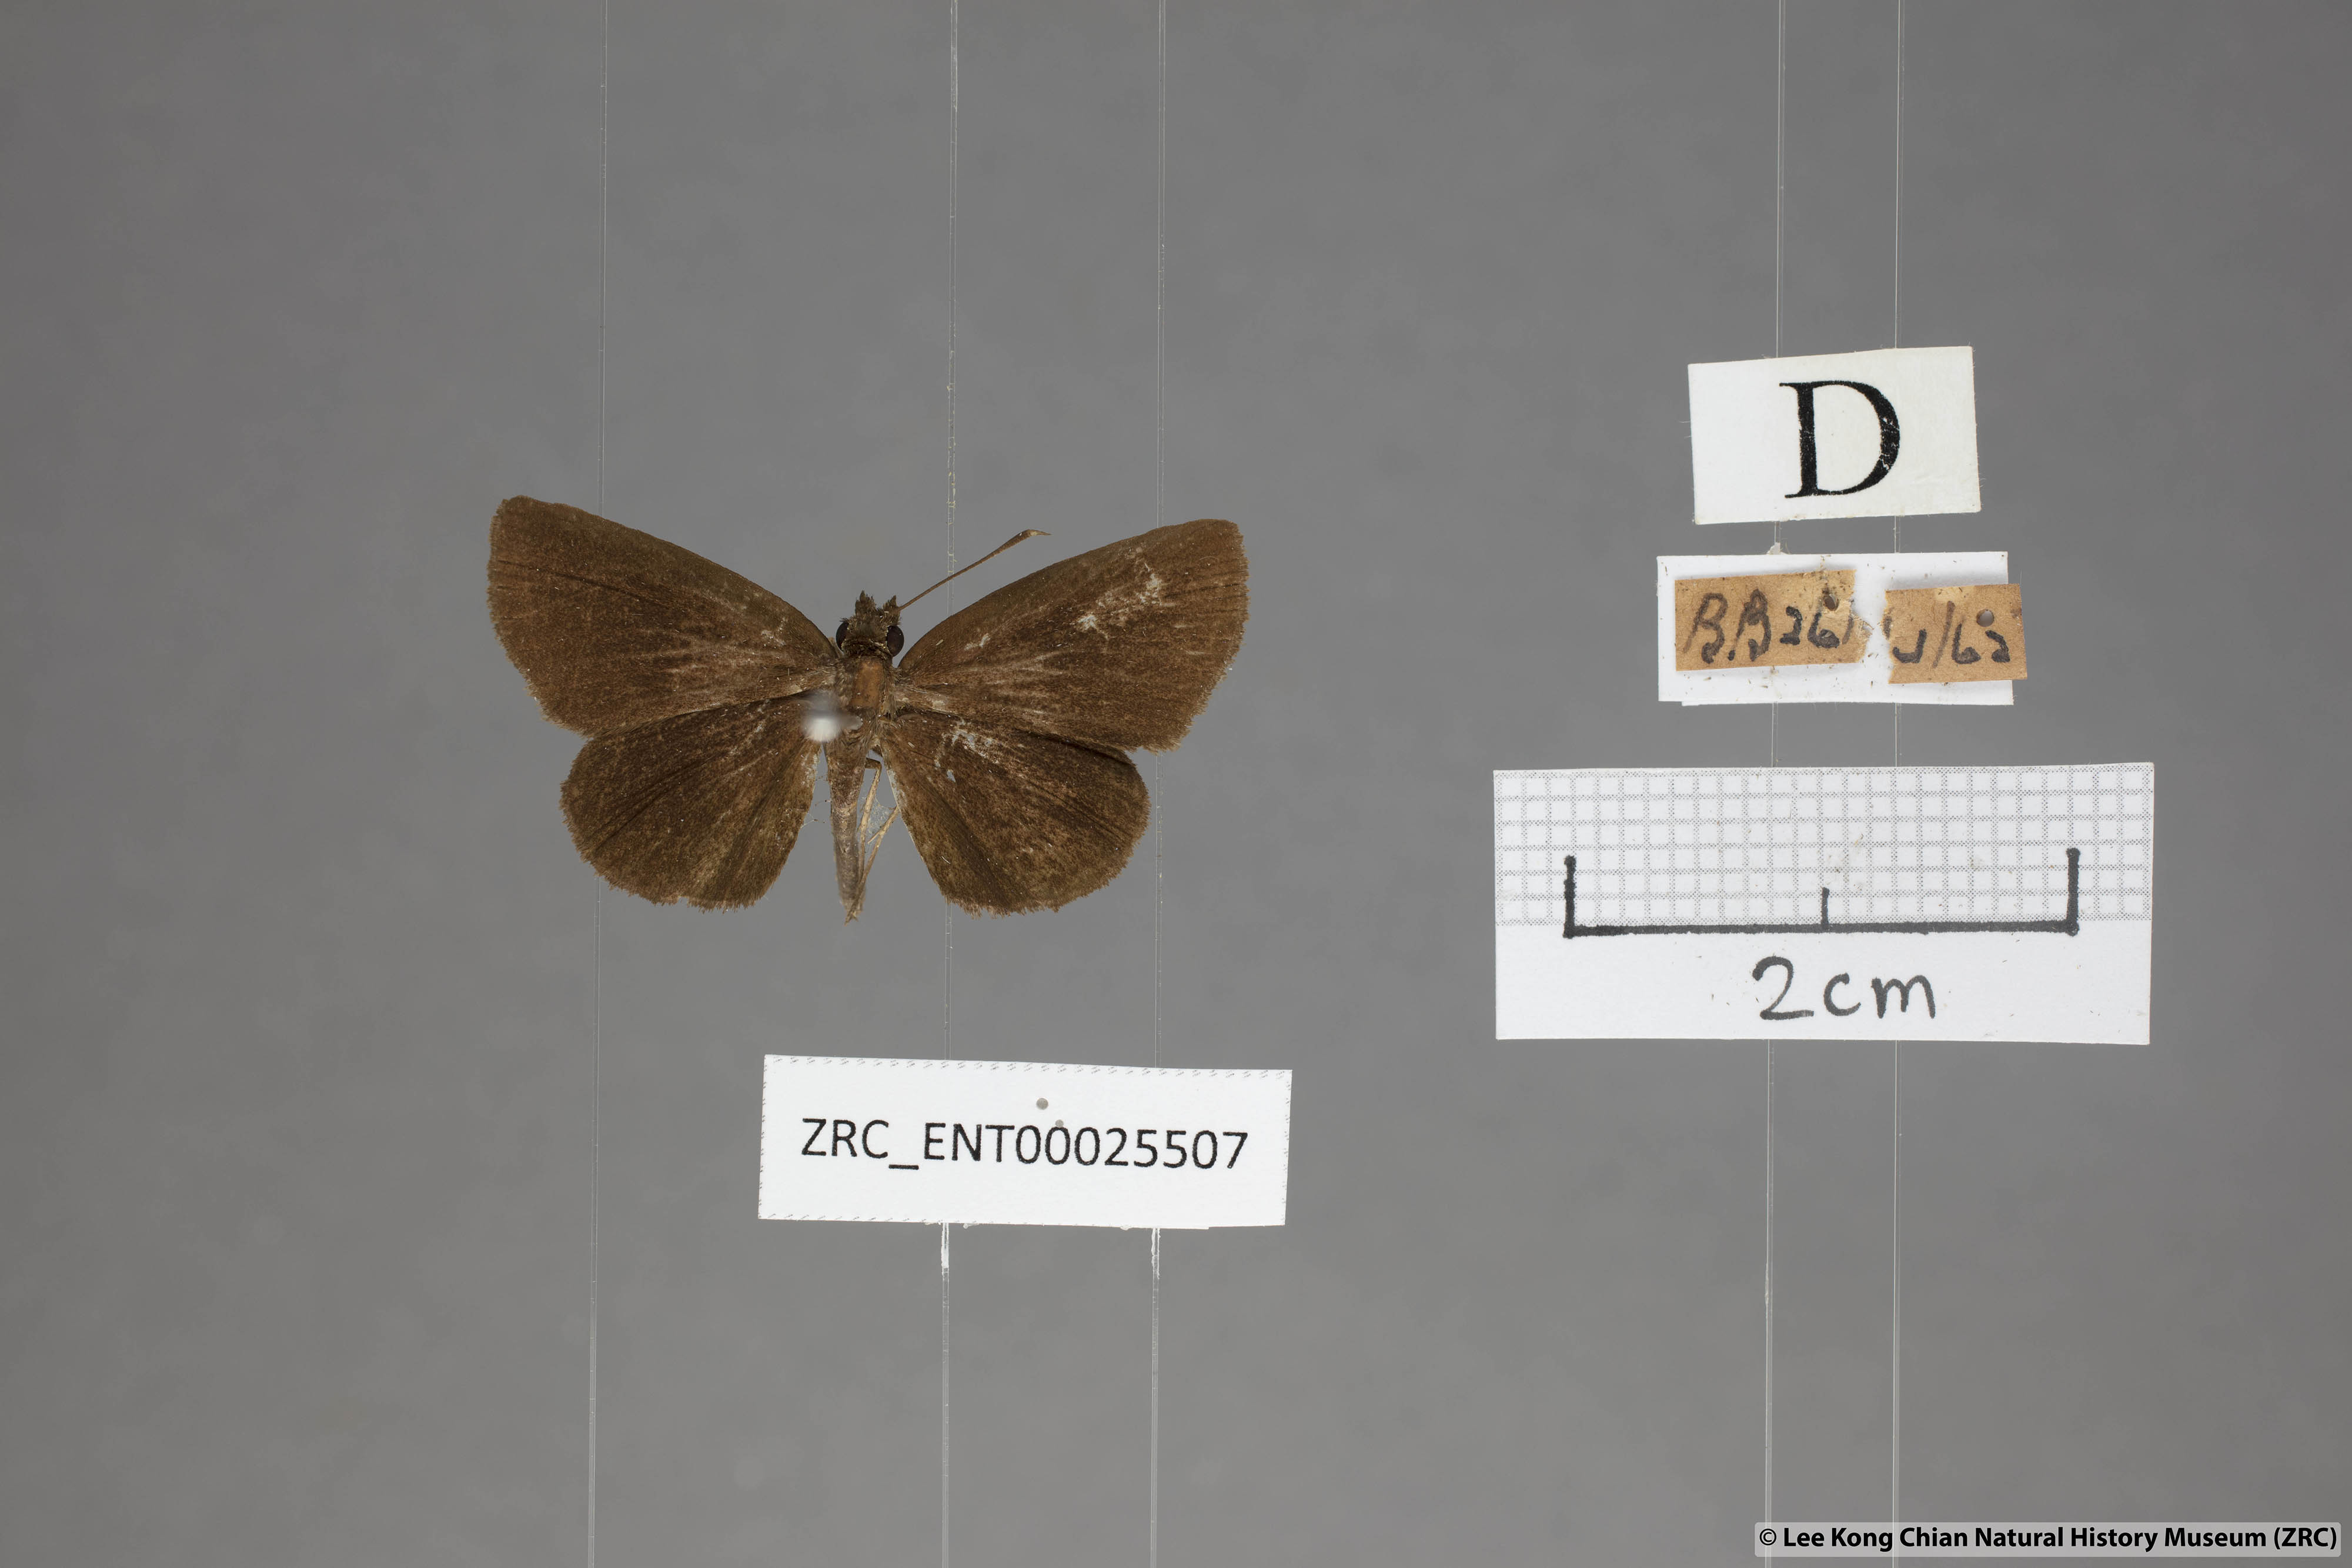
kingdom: Animalia
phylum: Arthropoda
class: Insecta
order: Lepidoptera
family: Hesperiidae
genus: Psolos
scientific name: Psolos fuligo
